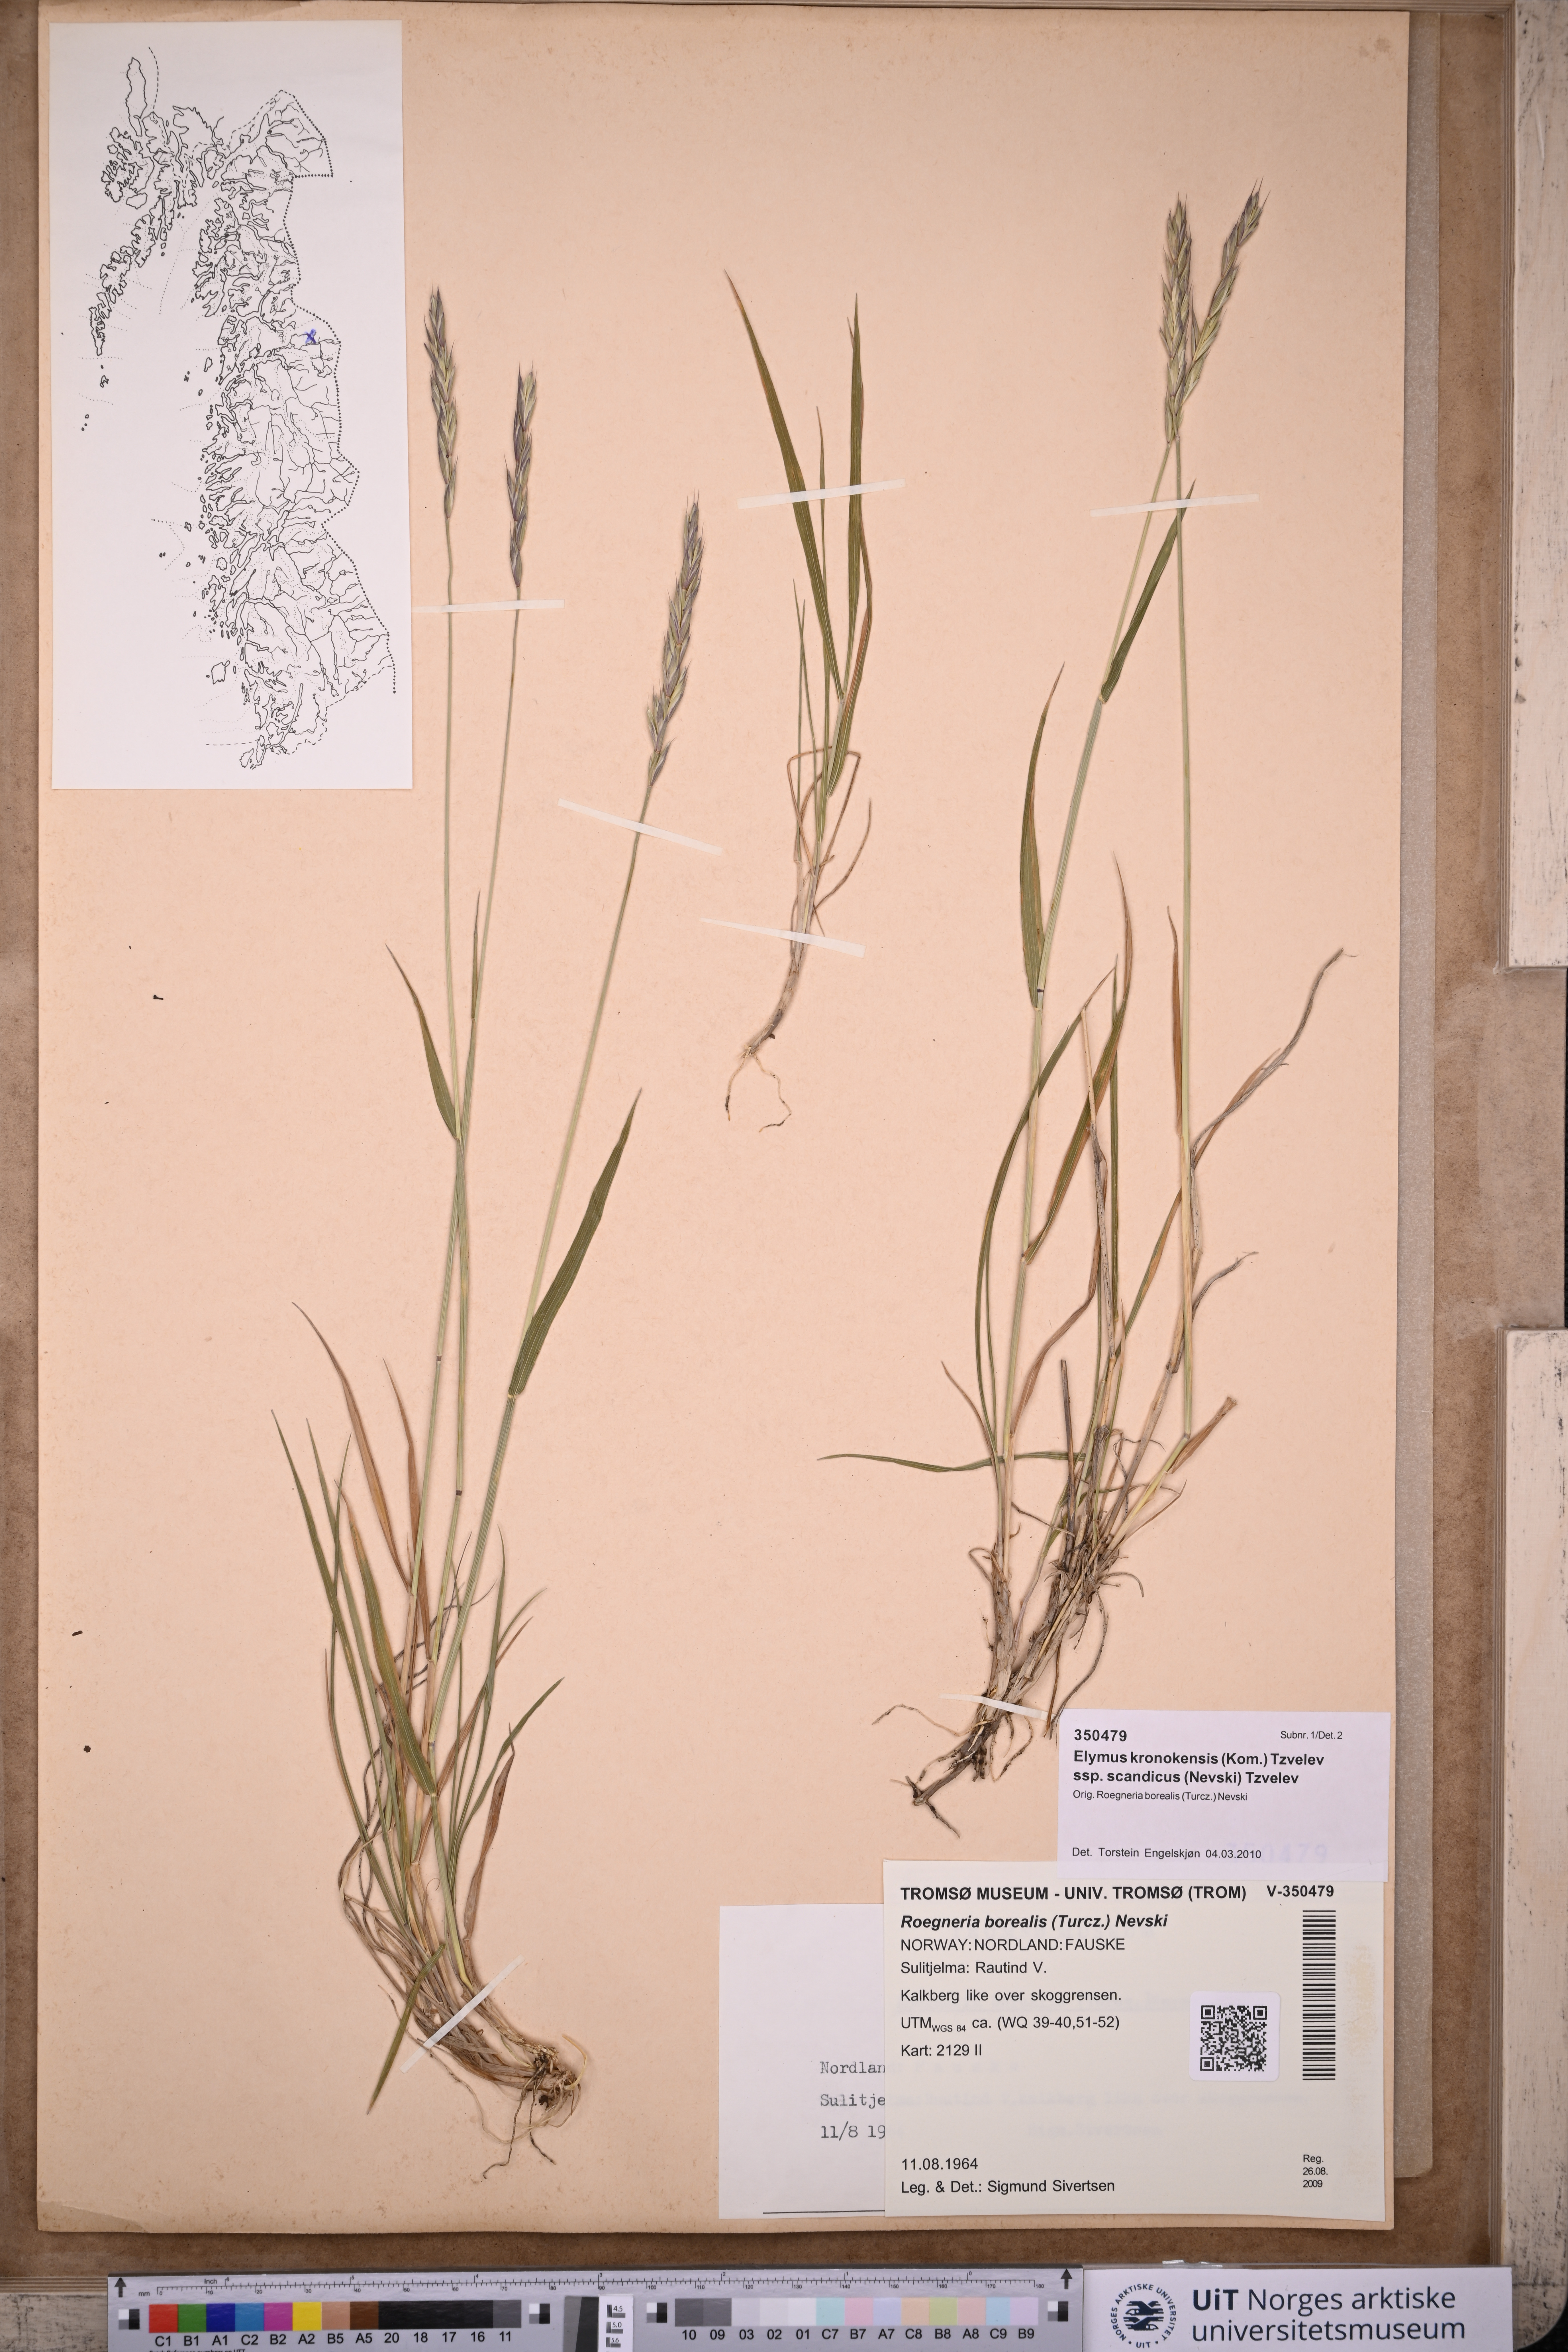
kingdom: Plantae
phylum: Tracheophyta
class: Liliopsida
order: Poales
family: Poaceae
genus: Elymus
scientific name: Elymus macrourus
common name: Northern wheatgrass
